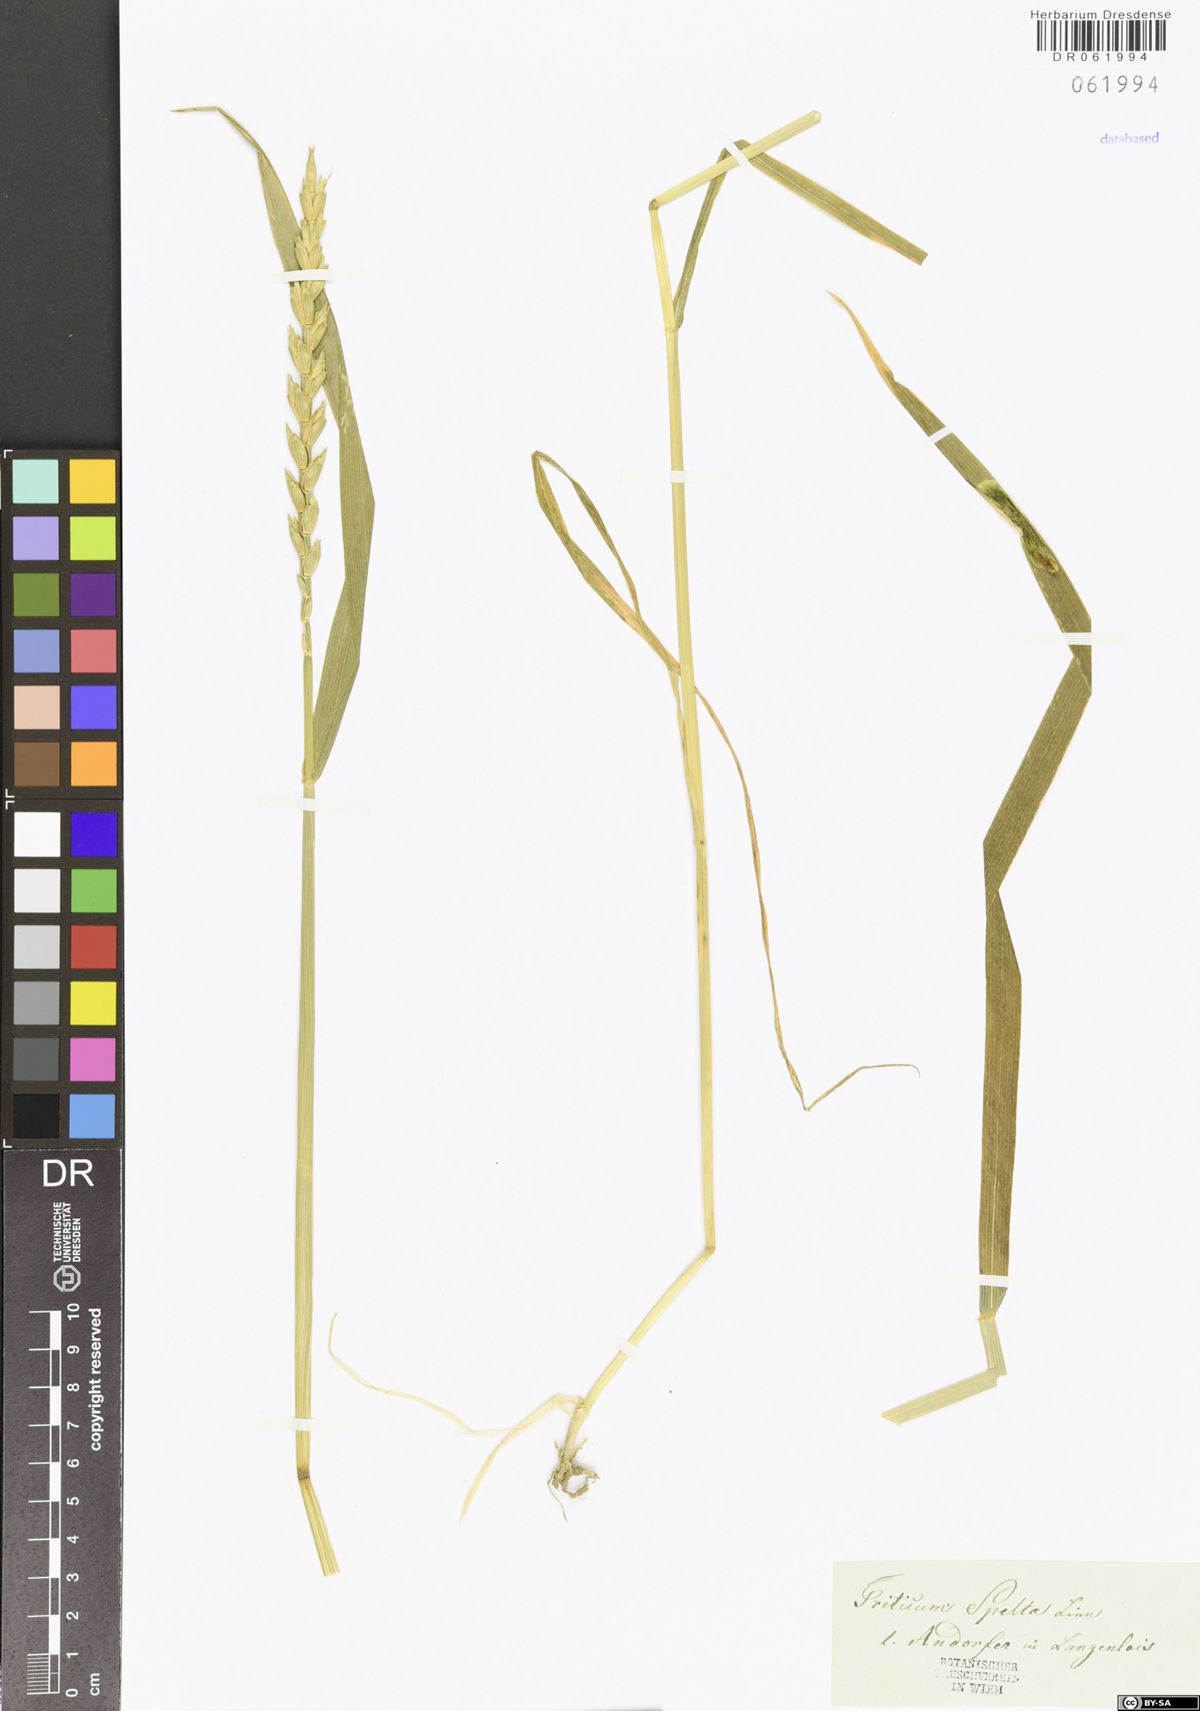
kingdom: Plantae
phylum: Tracheophyta
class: Liliopsida
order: Poales
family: Poaceae
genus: Triticum
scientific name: Triticum aestivum
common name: Common wheat
